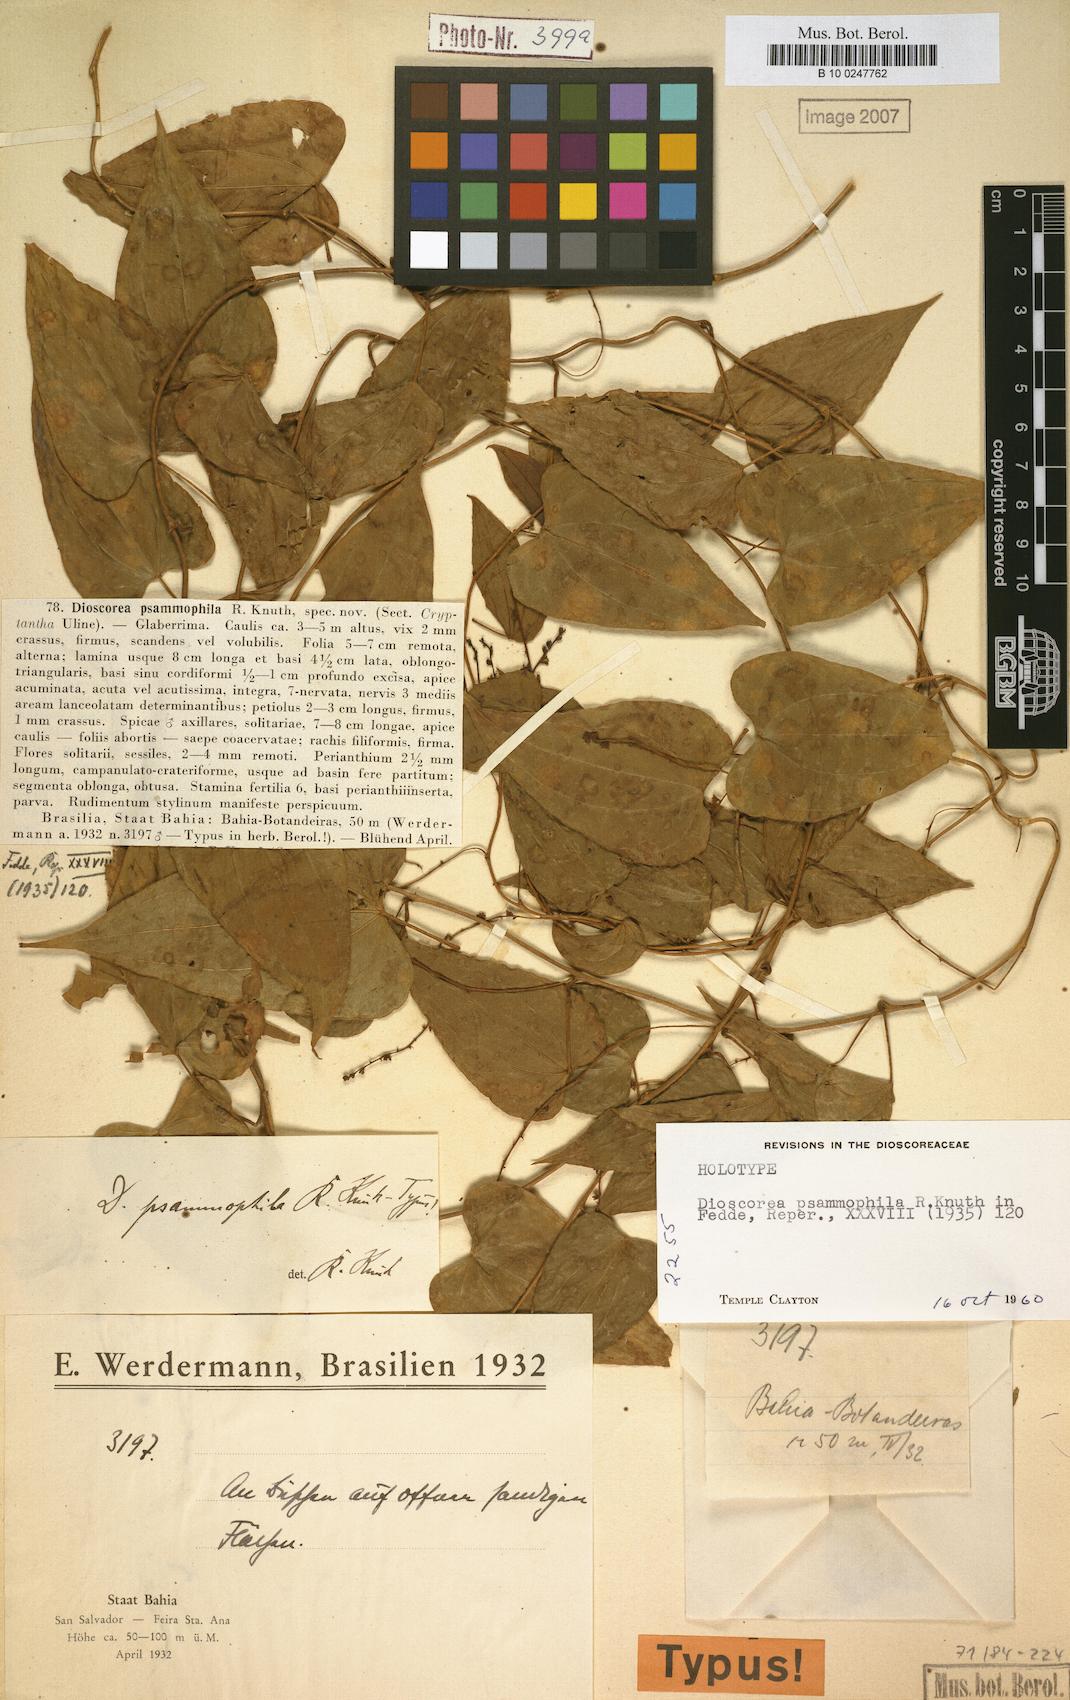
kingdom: Plantae
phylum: Tracheophyta
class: Liliopsida
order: Dioscoreales
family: Dioscoreaceae
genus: Dioscorea
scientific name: Dioscorea psammophila
